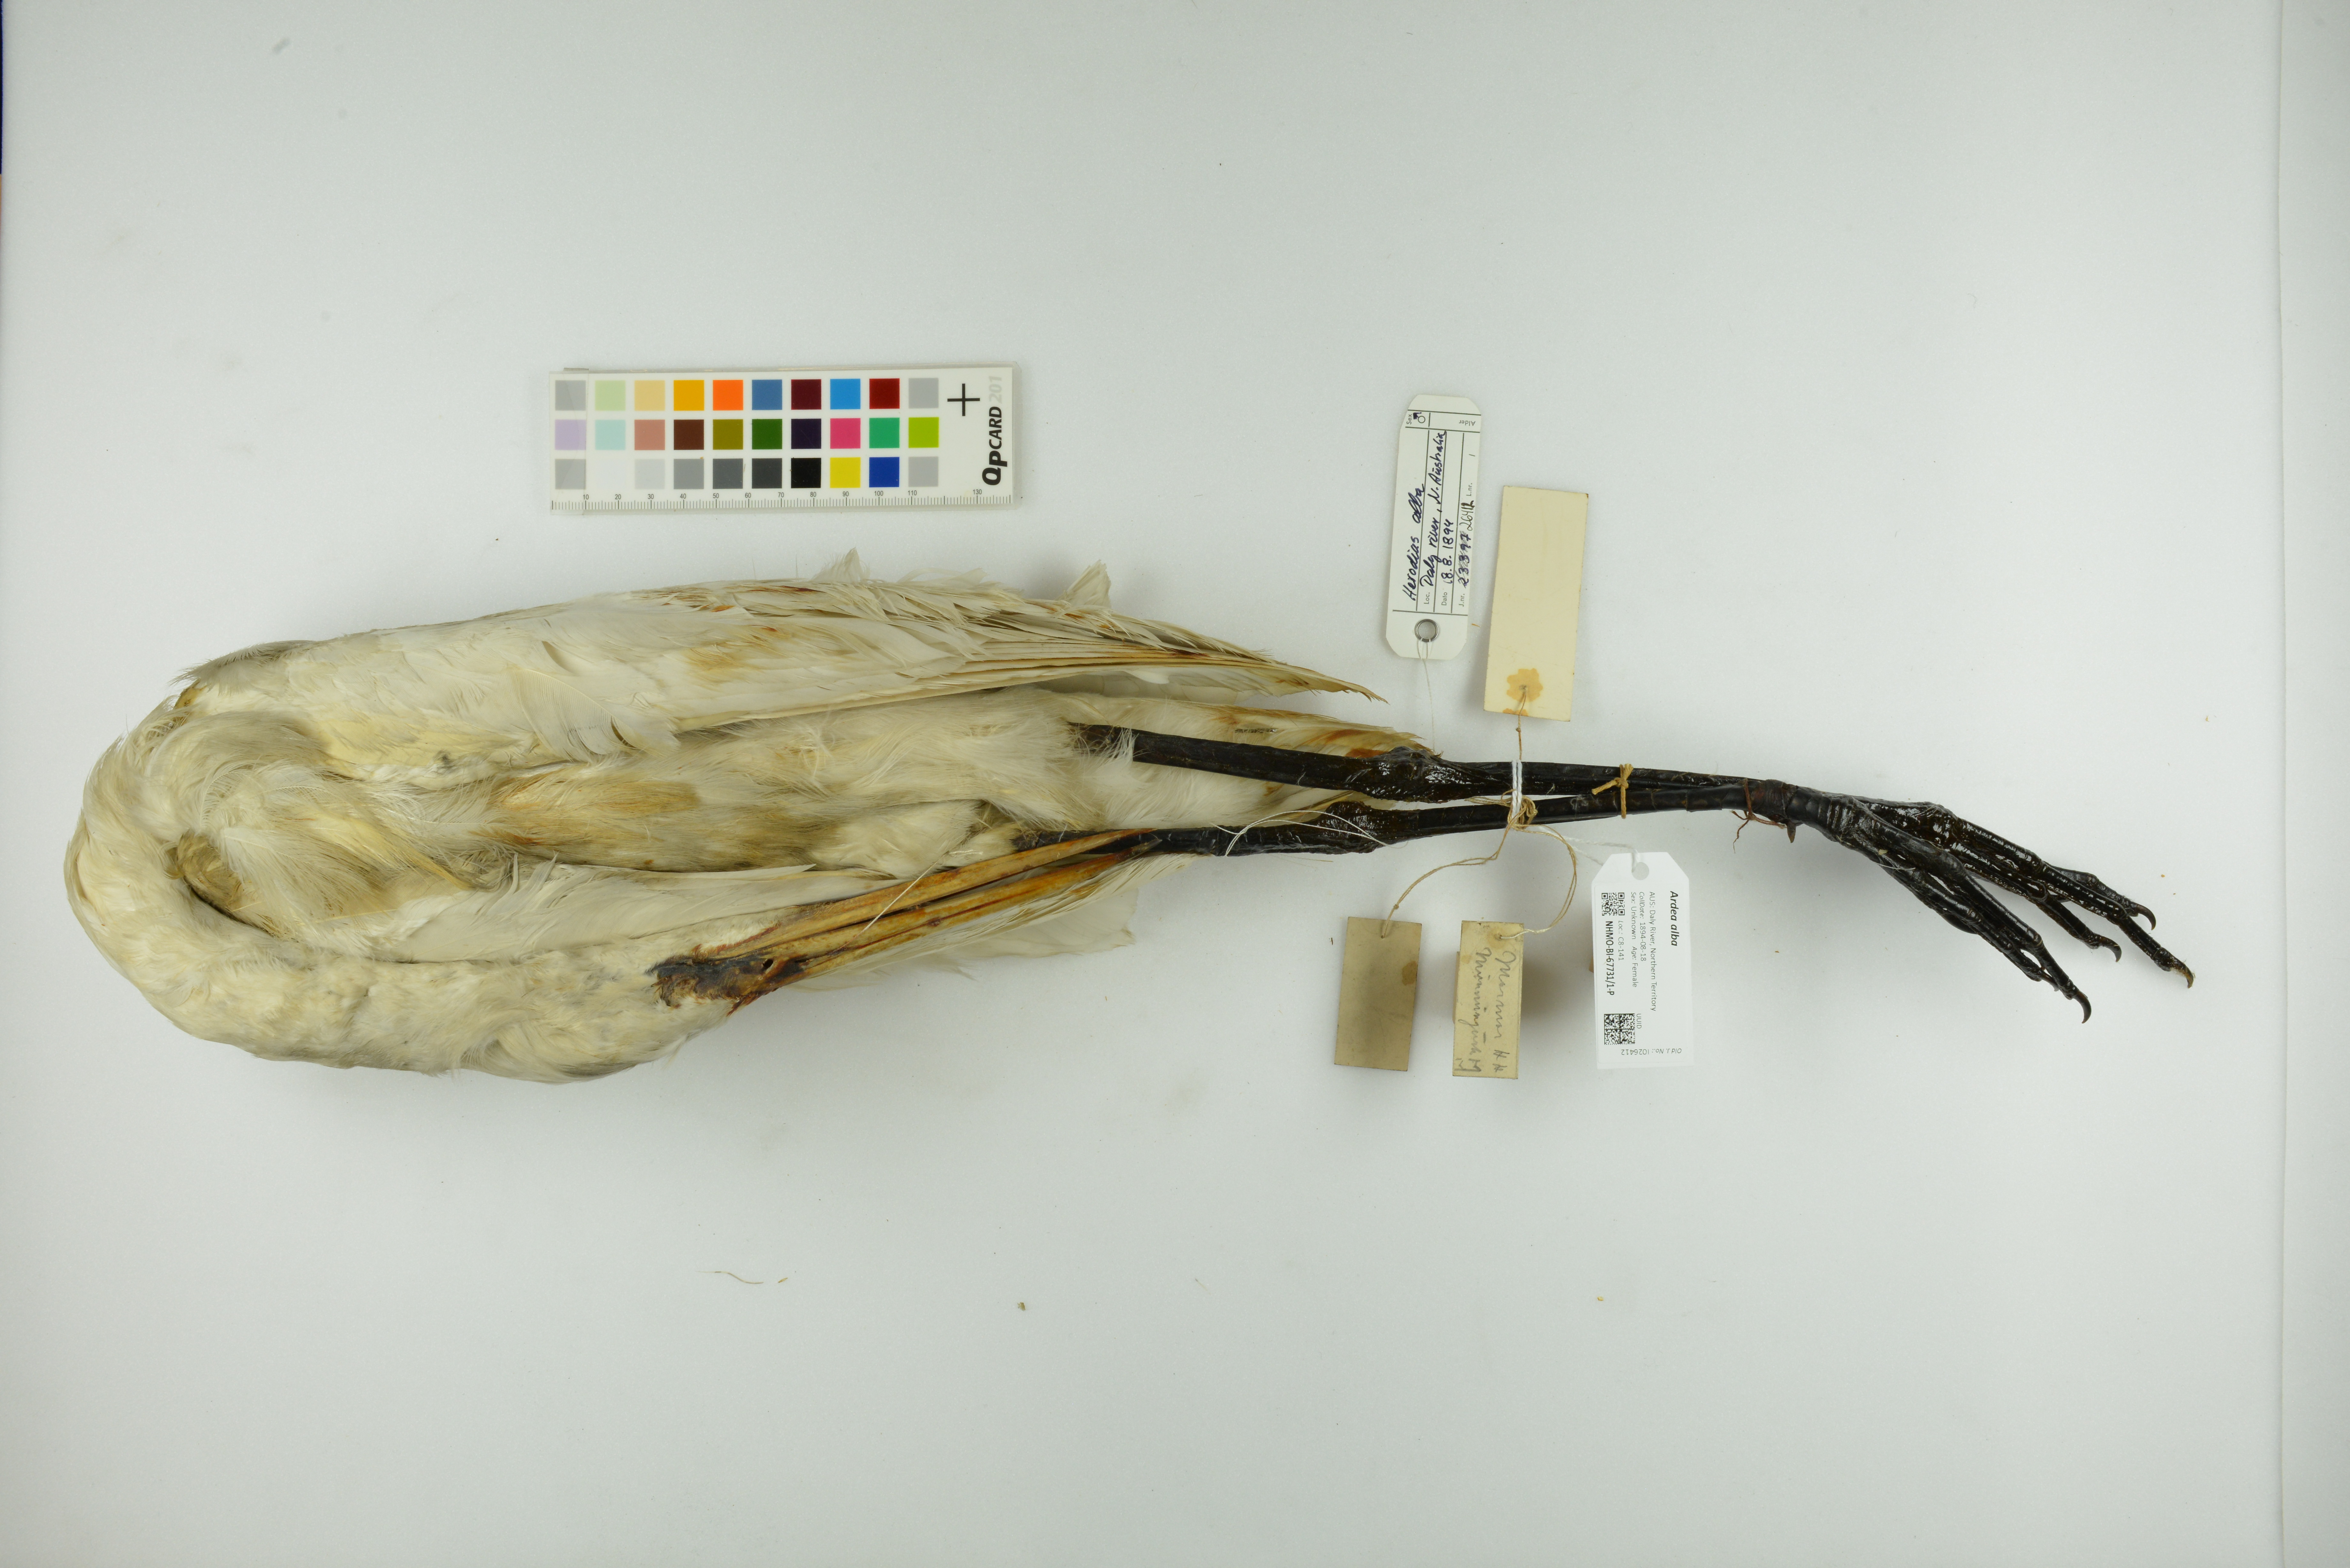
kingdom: Animalia
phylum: Chordata
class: Aves
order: Pelecaniformes
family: Ardeidae
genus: Ardea
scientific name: Ardea alba
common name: Great egret
